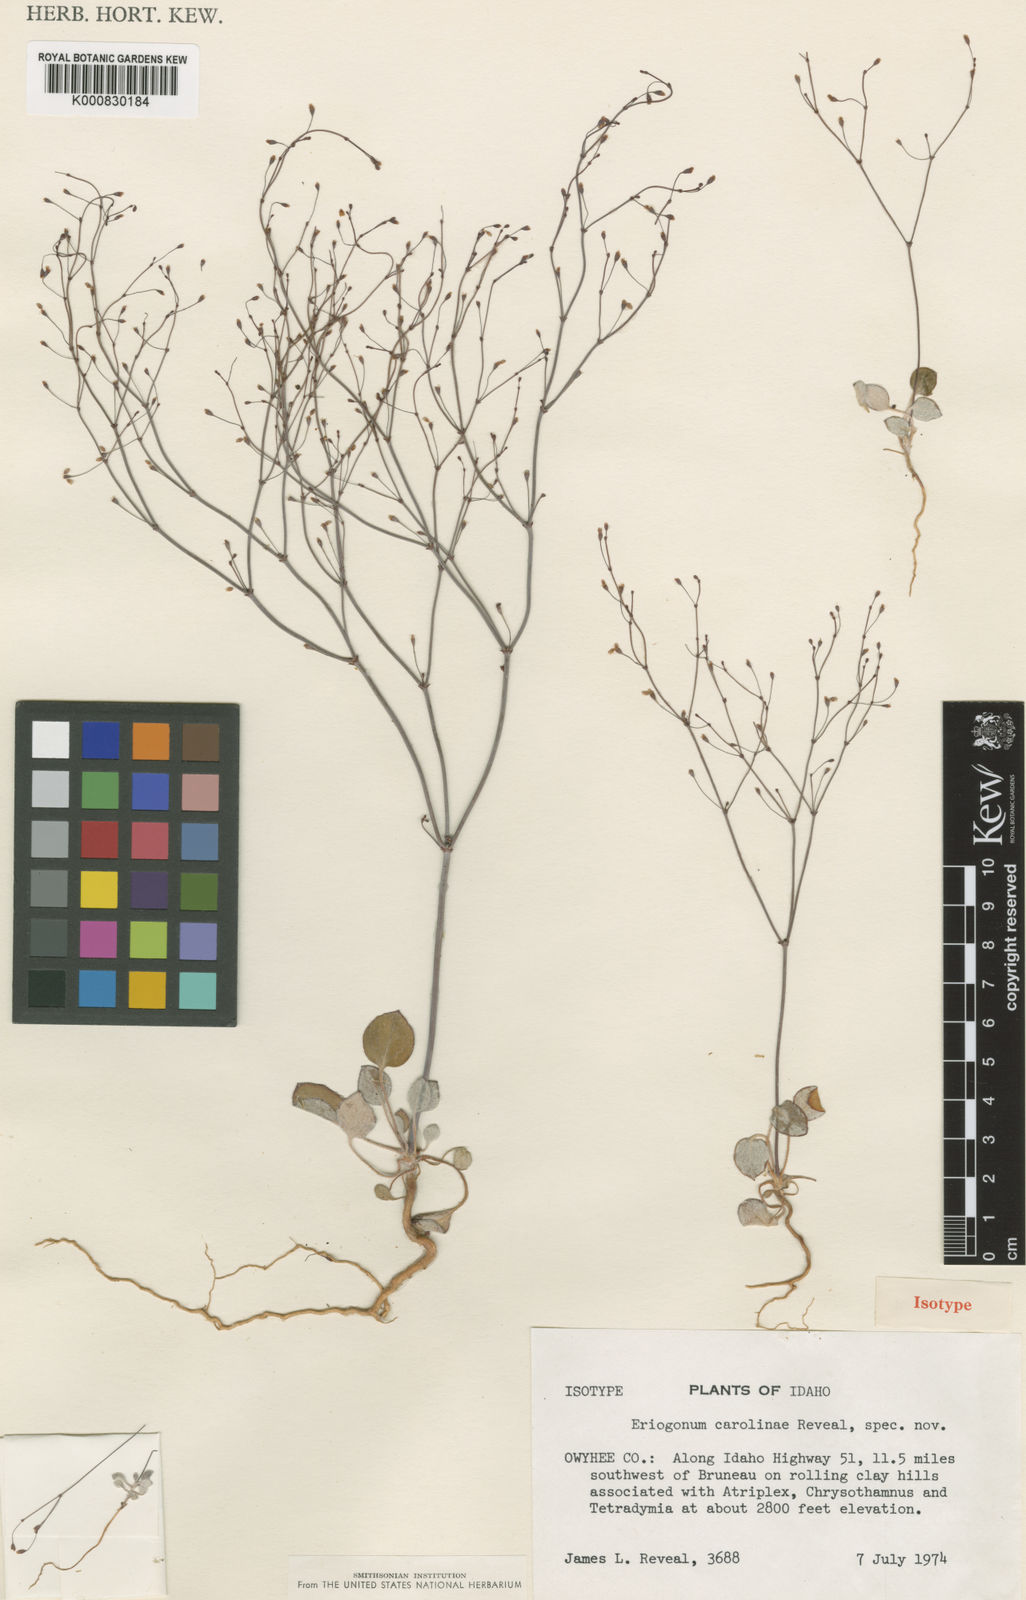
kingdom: Plantae
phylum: Tracheophyta
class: Magnoliopsida
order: Caryophyllales
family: Polygonaceae
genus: Eriogonum
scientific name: Eriogonum
